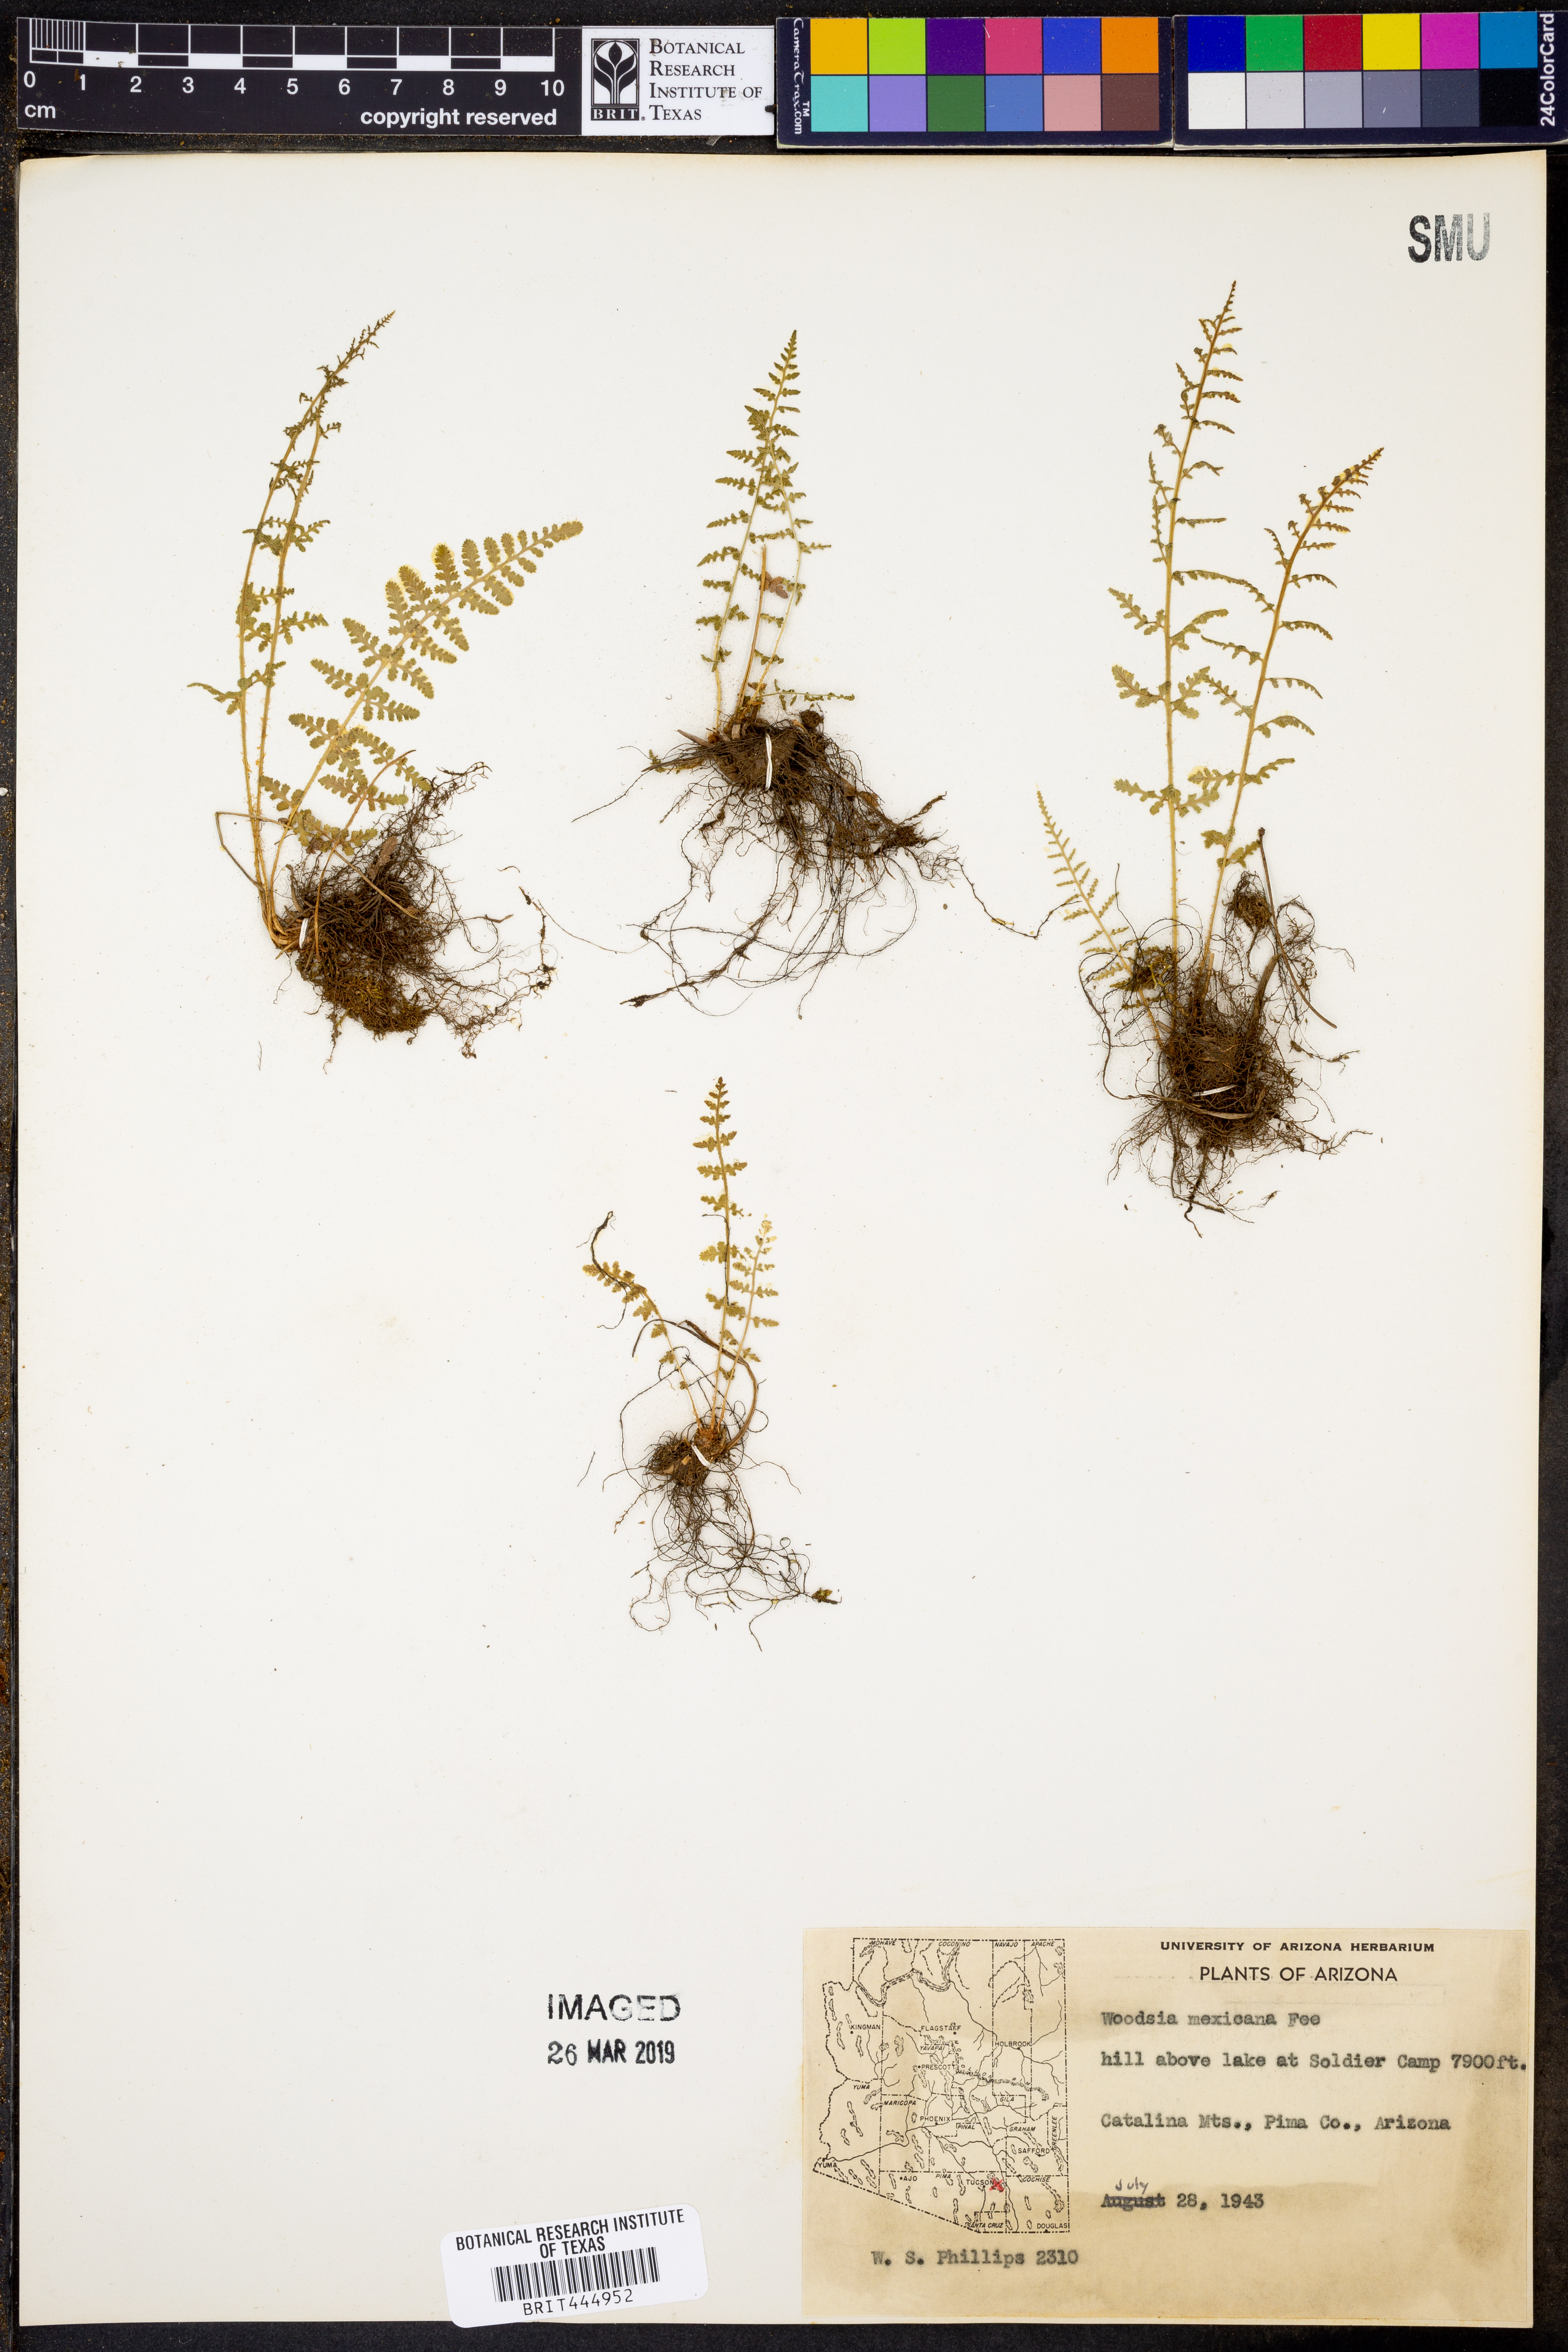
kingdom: Plantae
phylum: Tracheophyta
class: Polypodiopsida
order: Polypodiales
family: Woodsiaceae
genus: Physematium
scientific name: Physematium mexicanum
